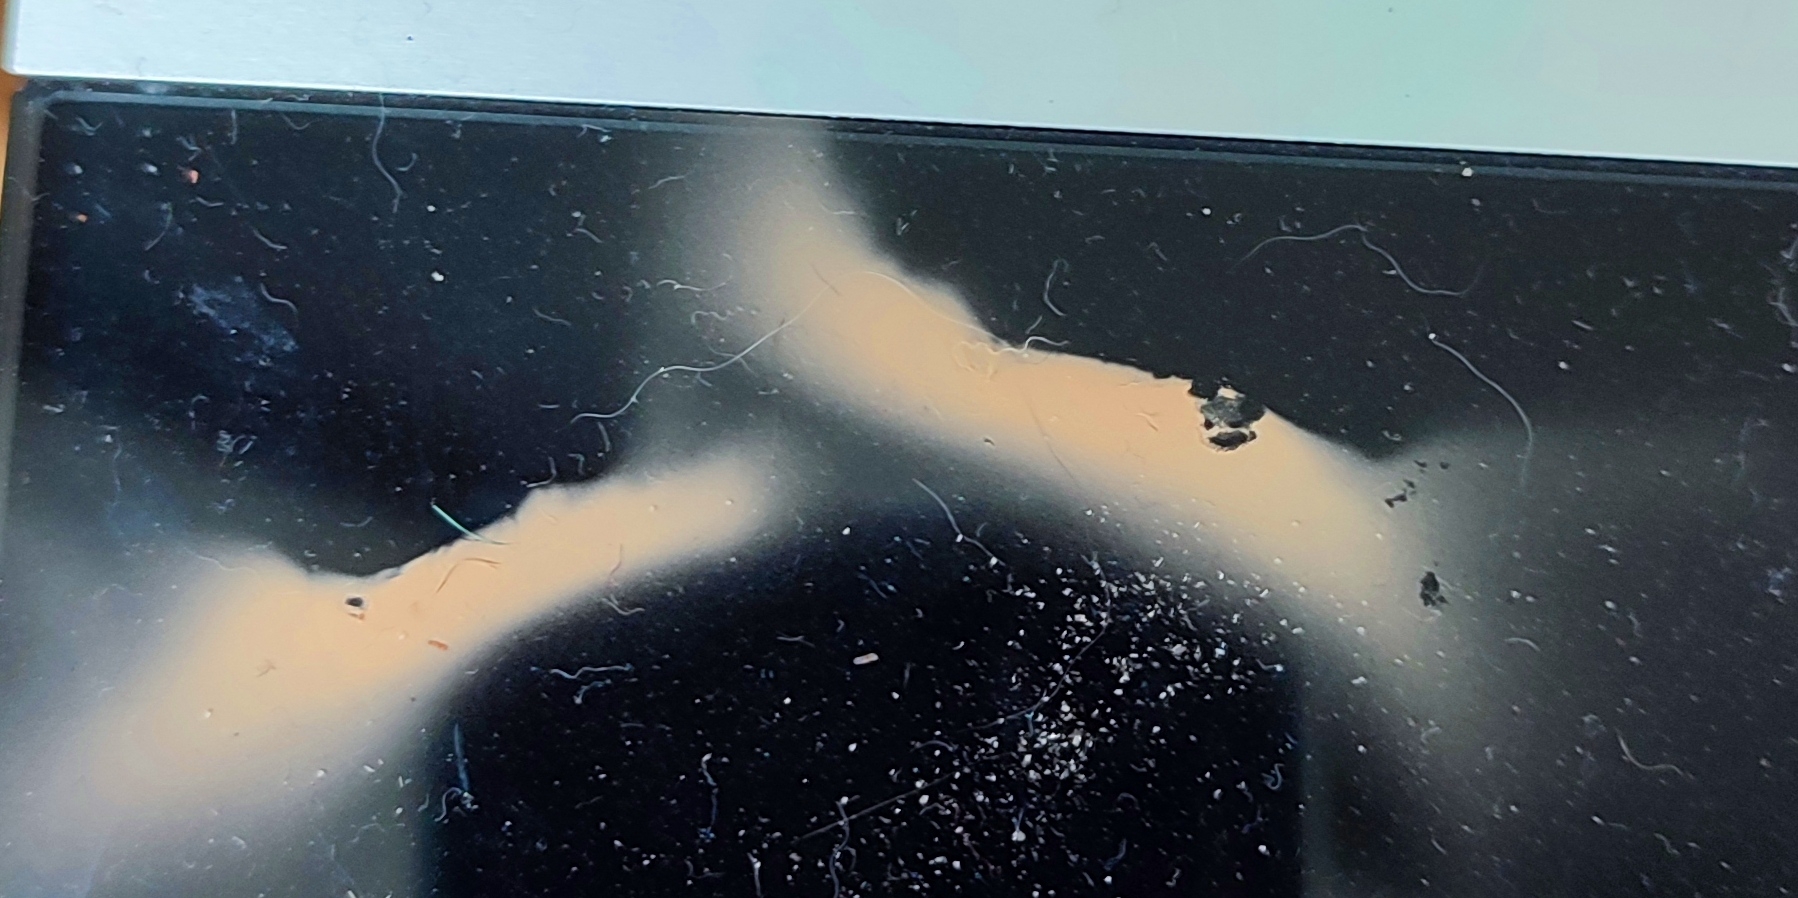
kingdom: Fungi
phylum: Basidiomycota
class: Agaricomycetes
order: Agaricales
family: Entolomataceae
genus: Clitopilus
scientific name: Clitopilus prunulus
